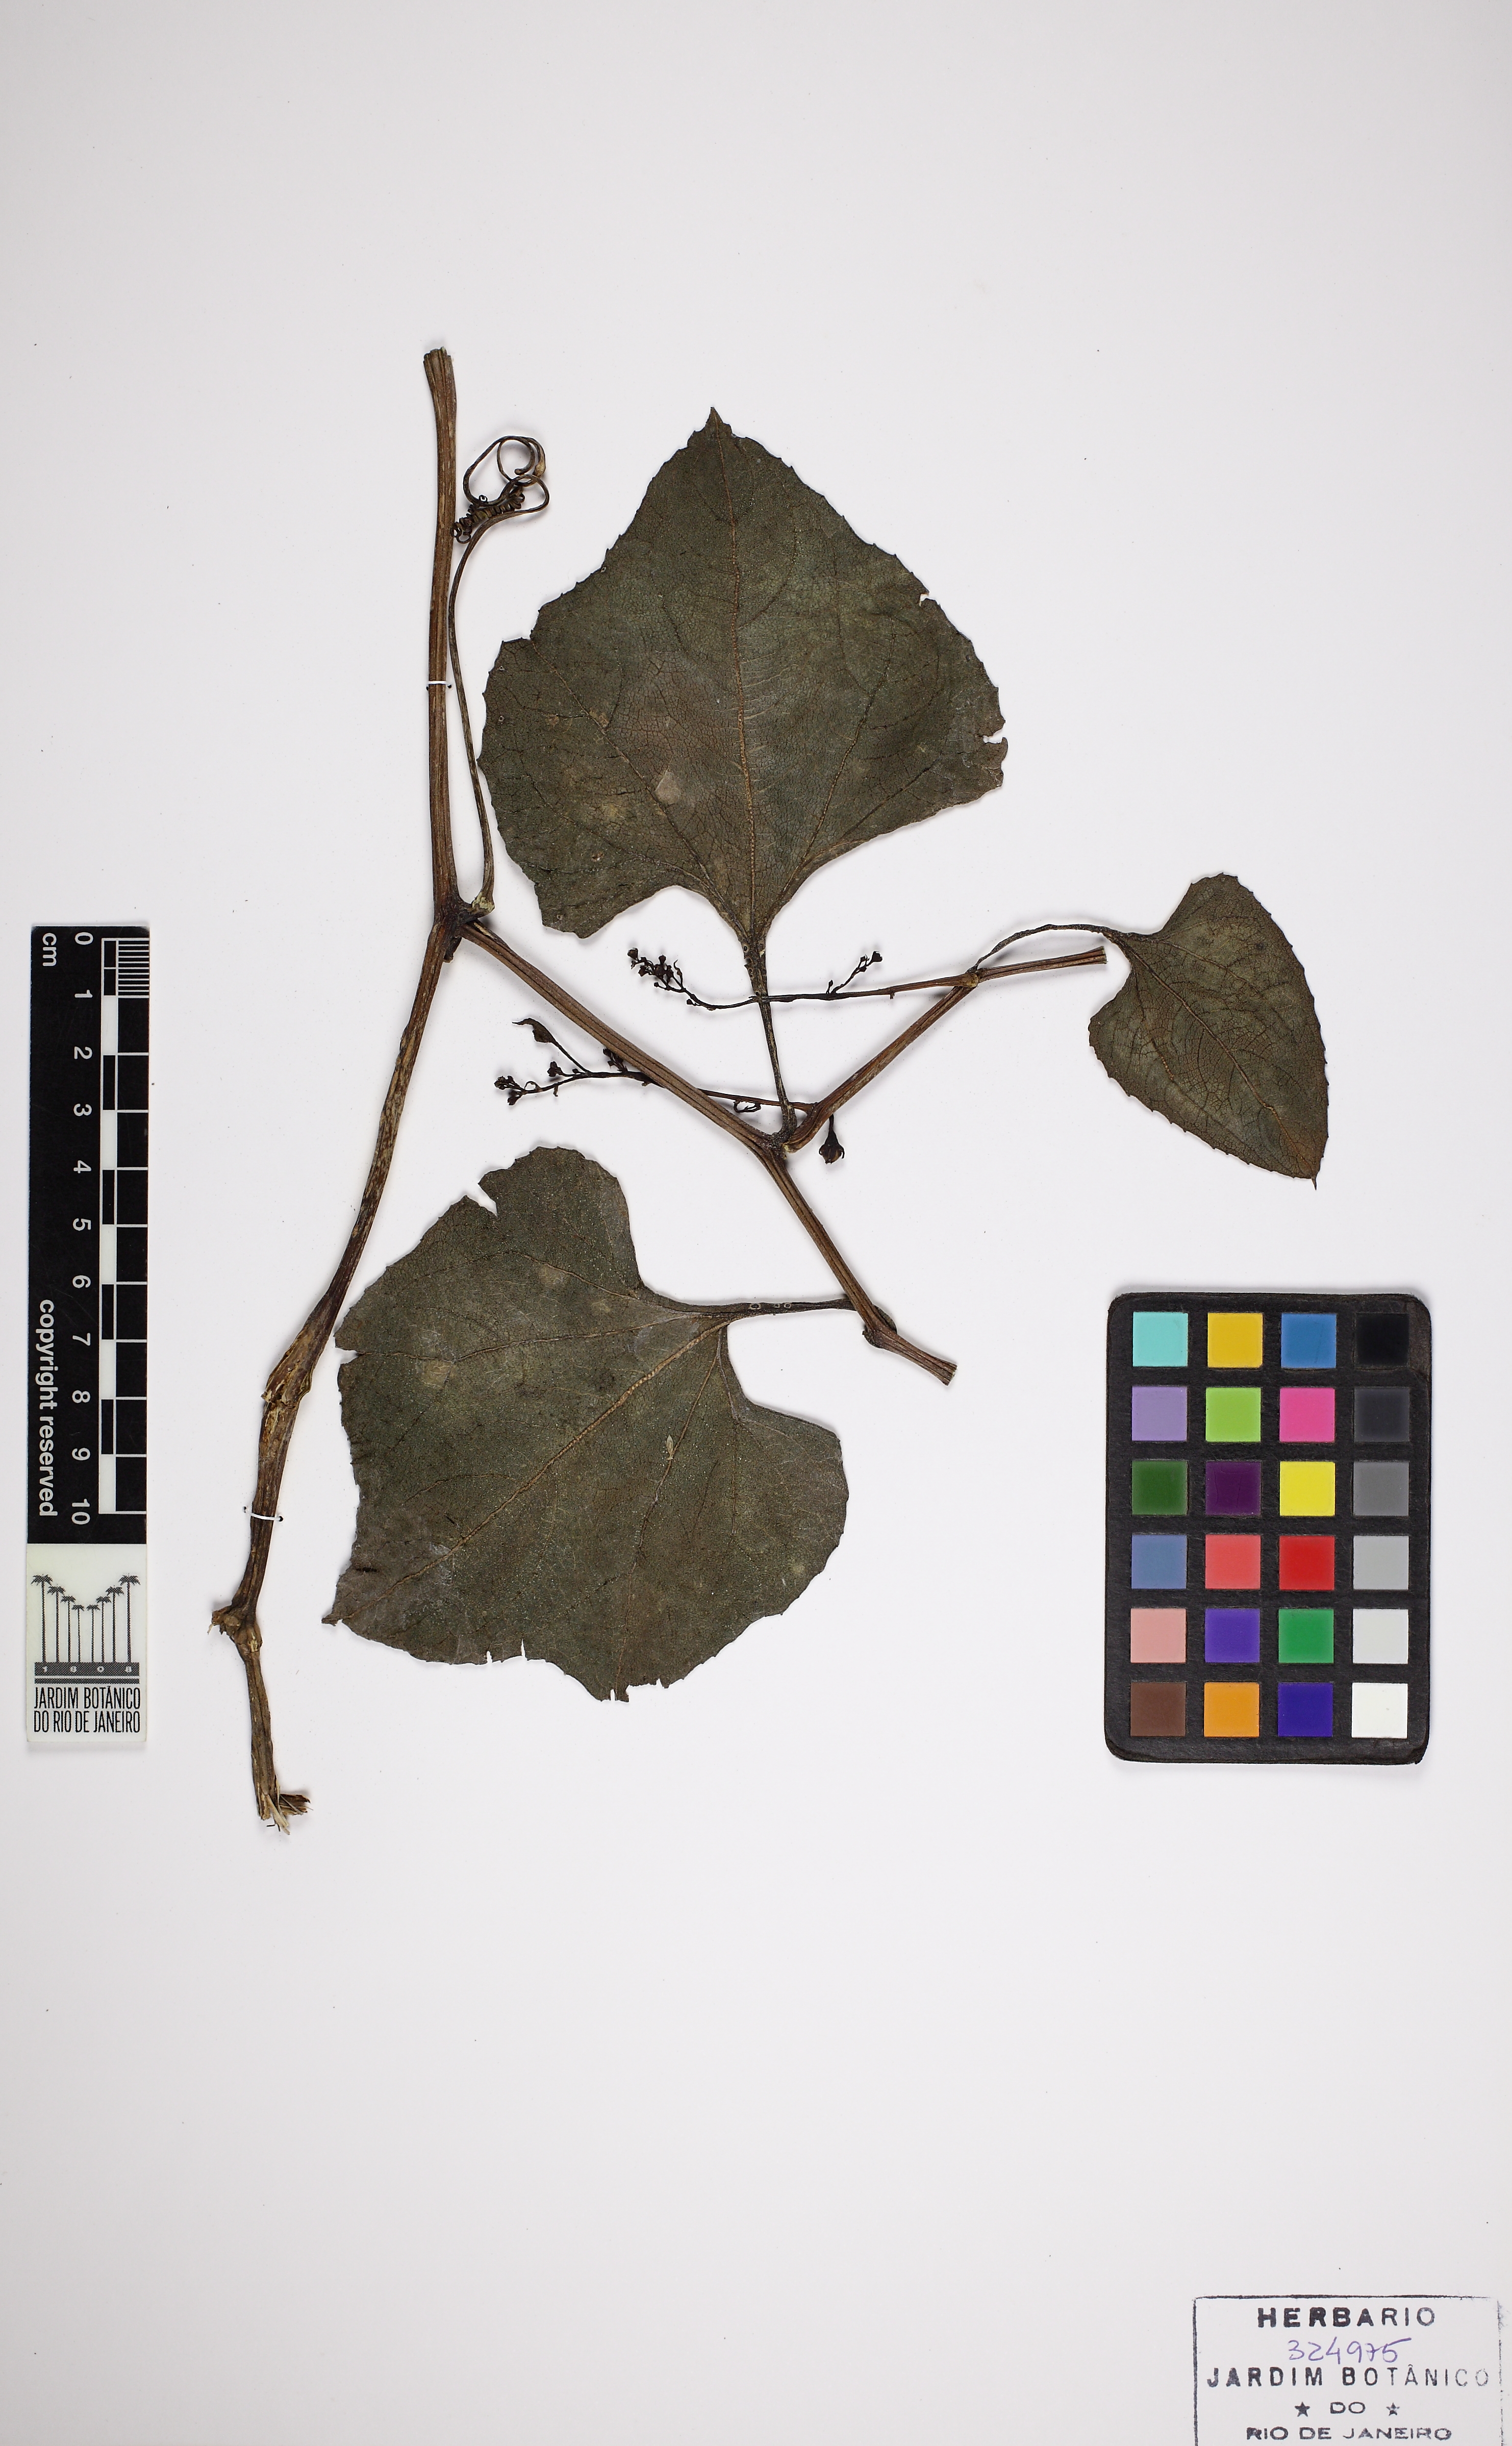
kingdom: Plantae
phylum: Tracheophyta
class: Magnoliopsida
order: Cucurbitales
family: Cucurbitaceae
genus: Cayaponia
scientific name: Cayaponia tayuya
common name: Tayuya
